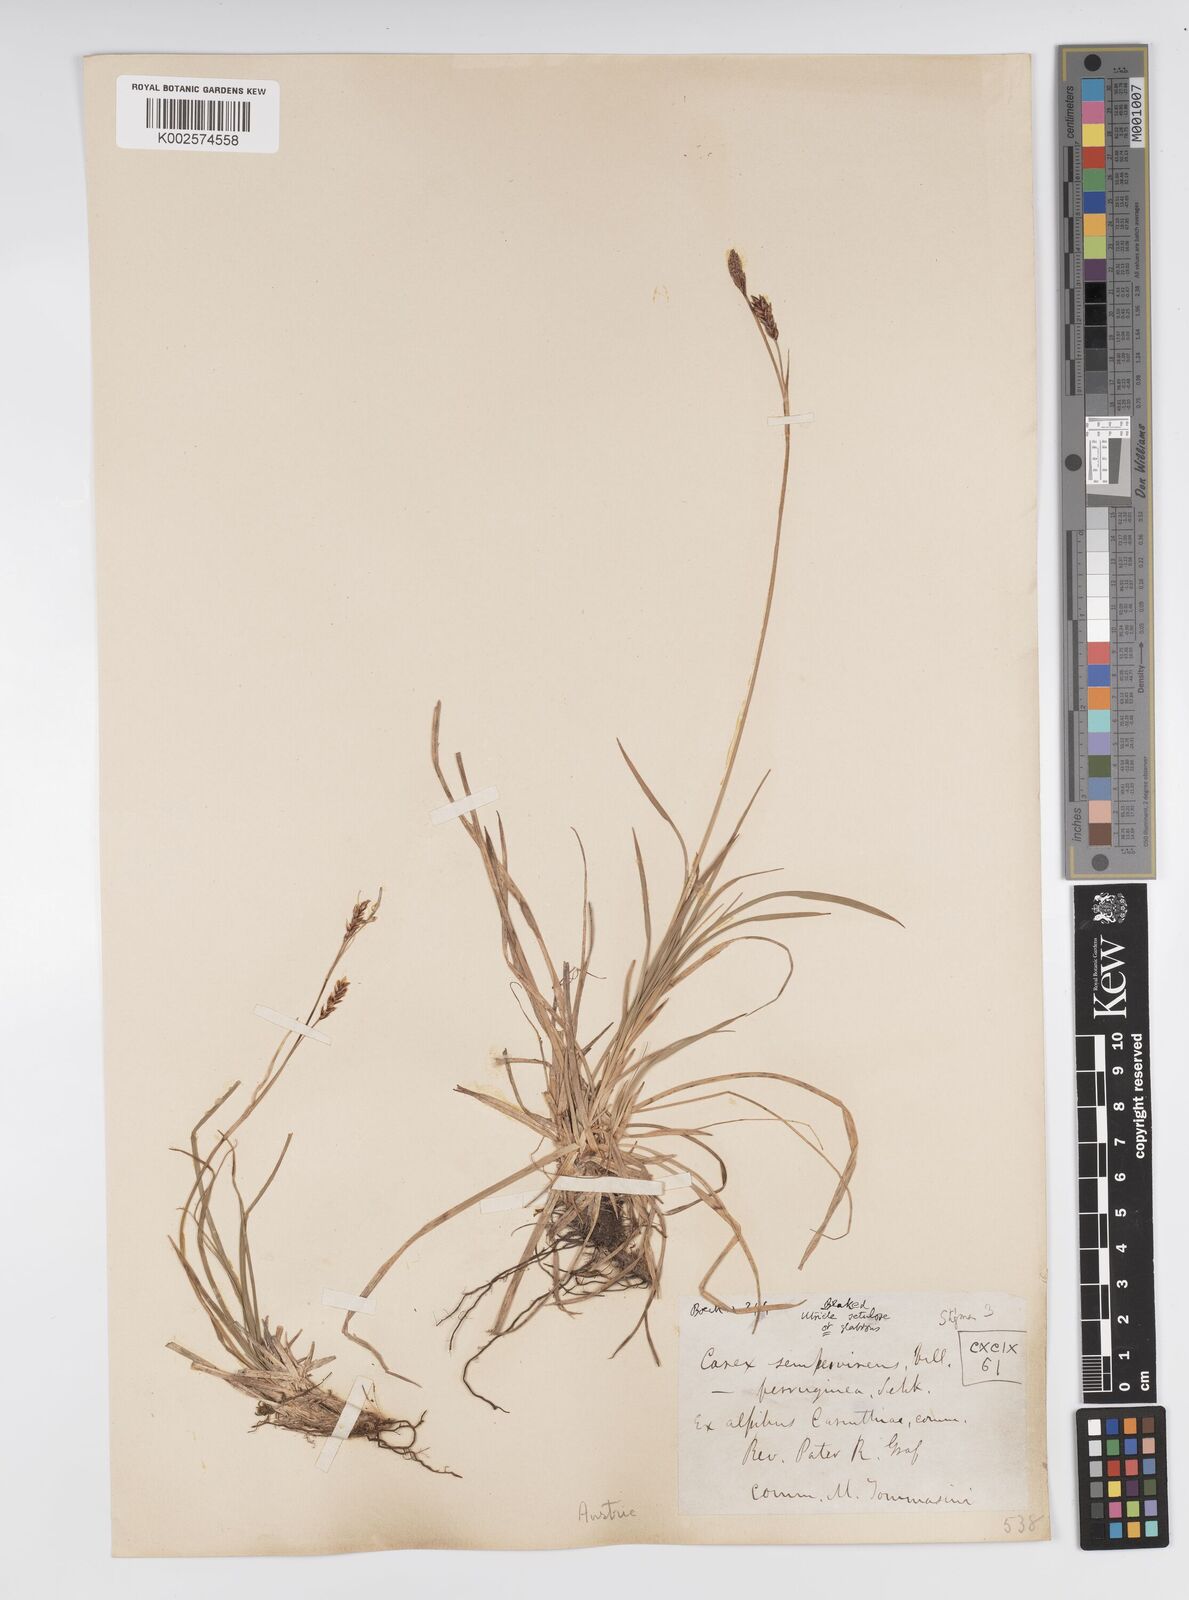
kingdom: Plantae
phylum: Tracheophyta
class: Liliopsida
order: Poales
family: Cyperaceae
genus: Carex
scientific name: Carex sempervirens
